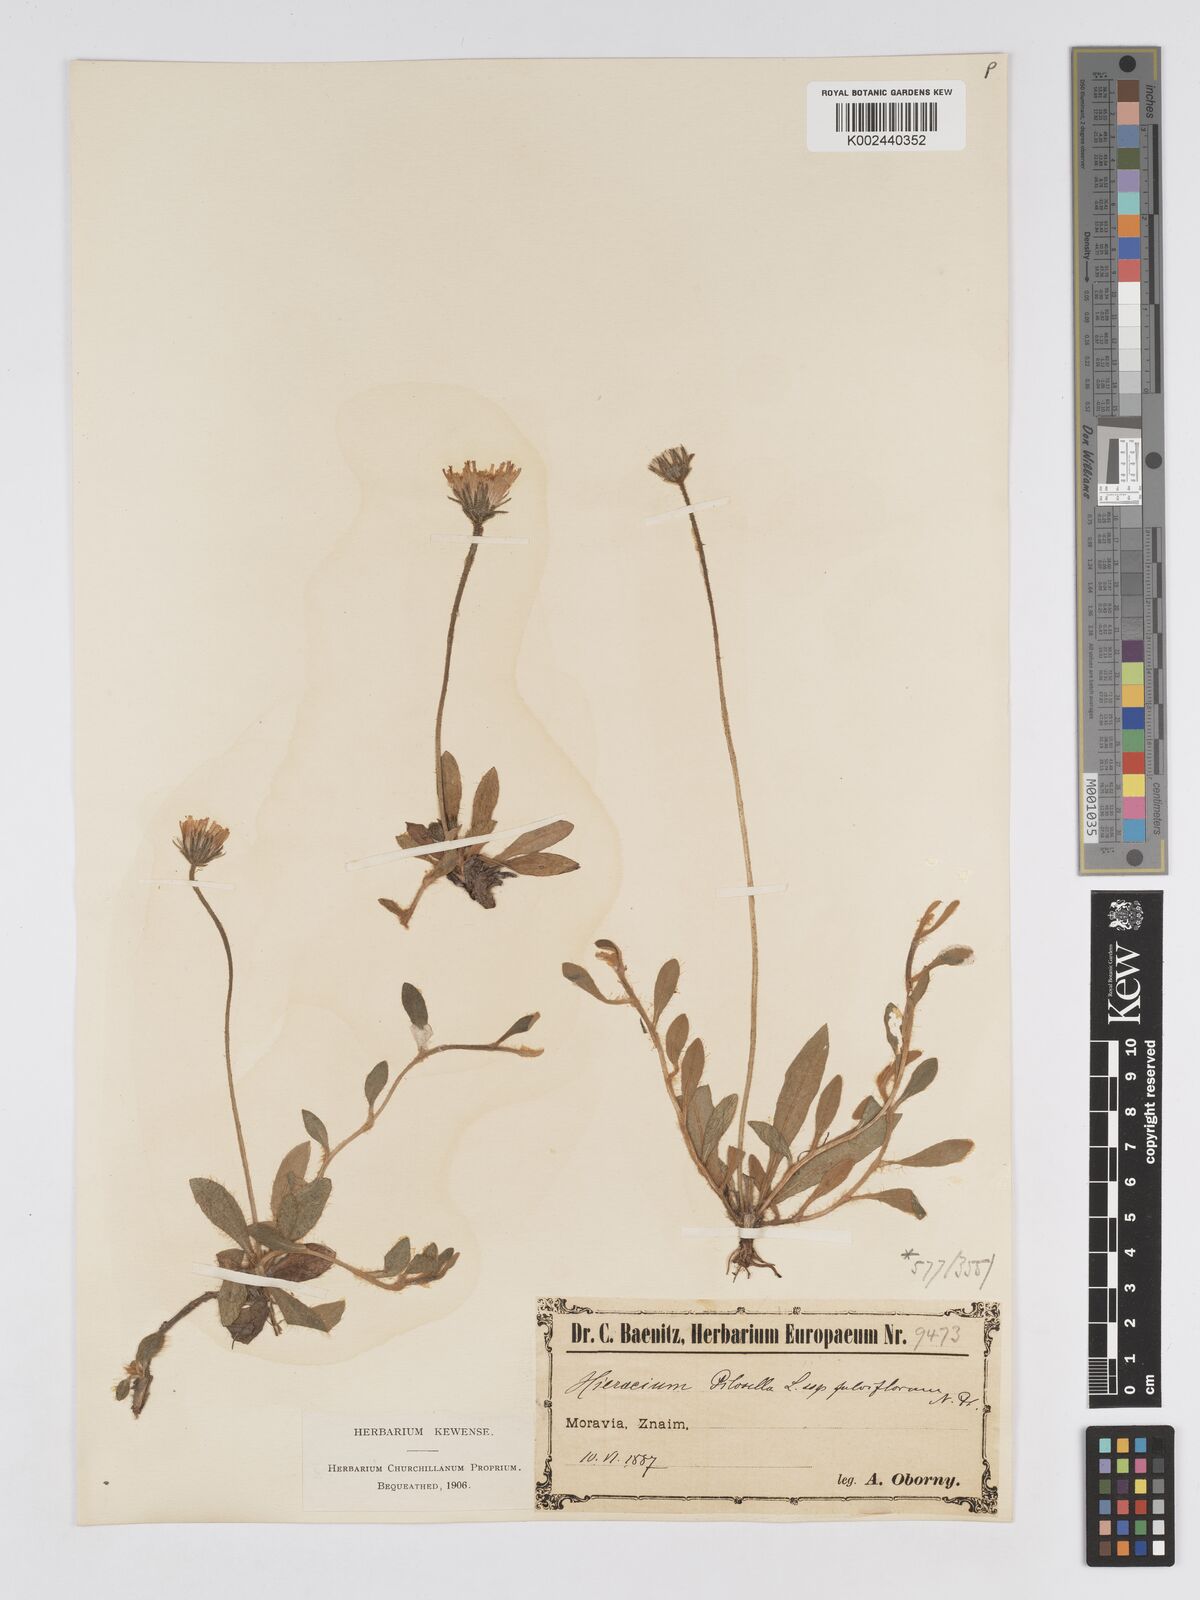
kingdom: Plantae
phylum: Tracheophyta
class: Magnoliopsida
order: Asterales
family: Asteraceae
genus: Pilosella
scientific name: Pilosella officinarum
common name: Mouse-ear hawkweed
